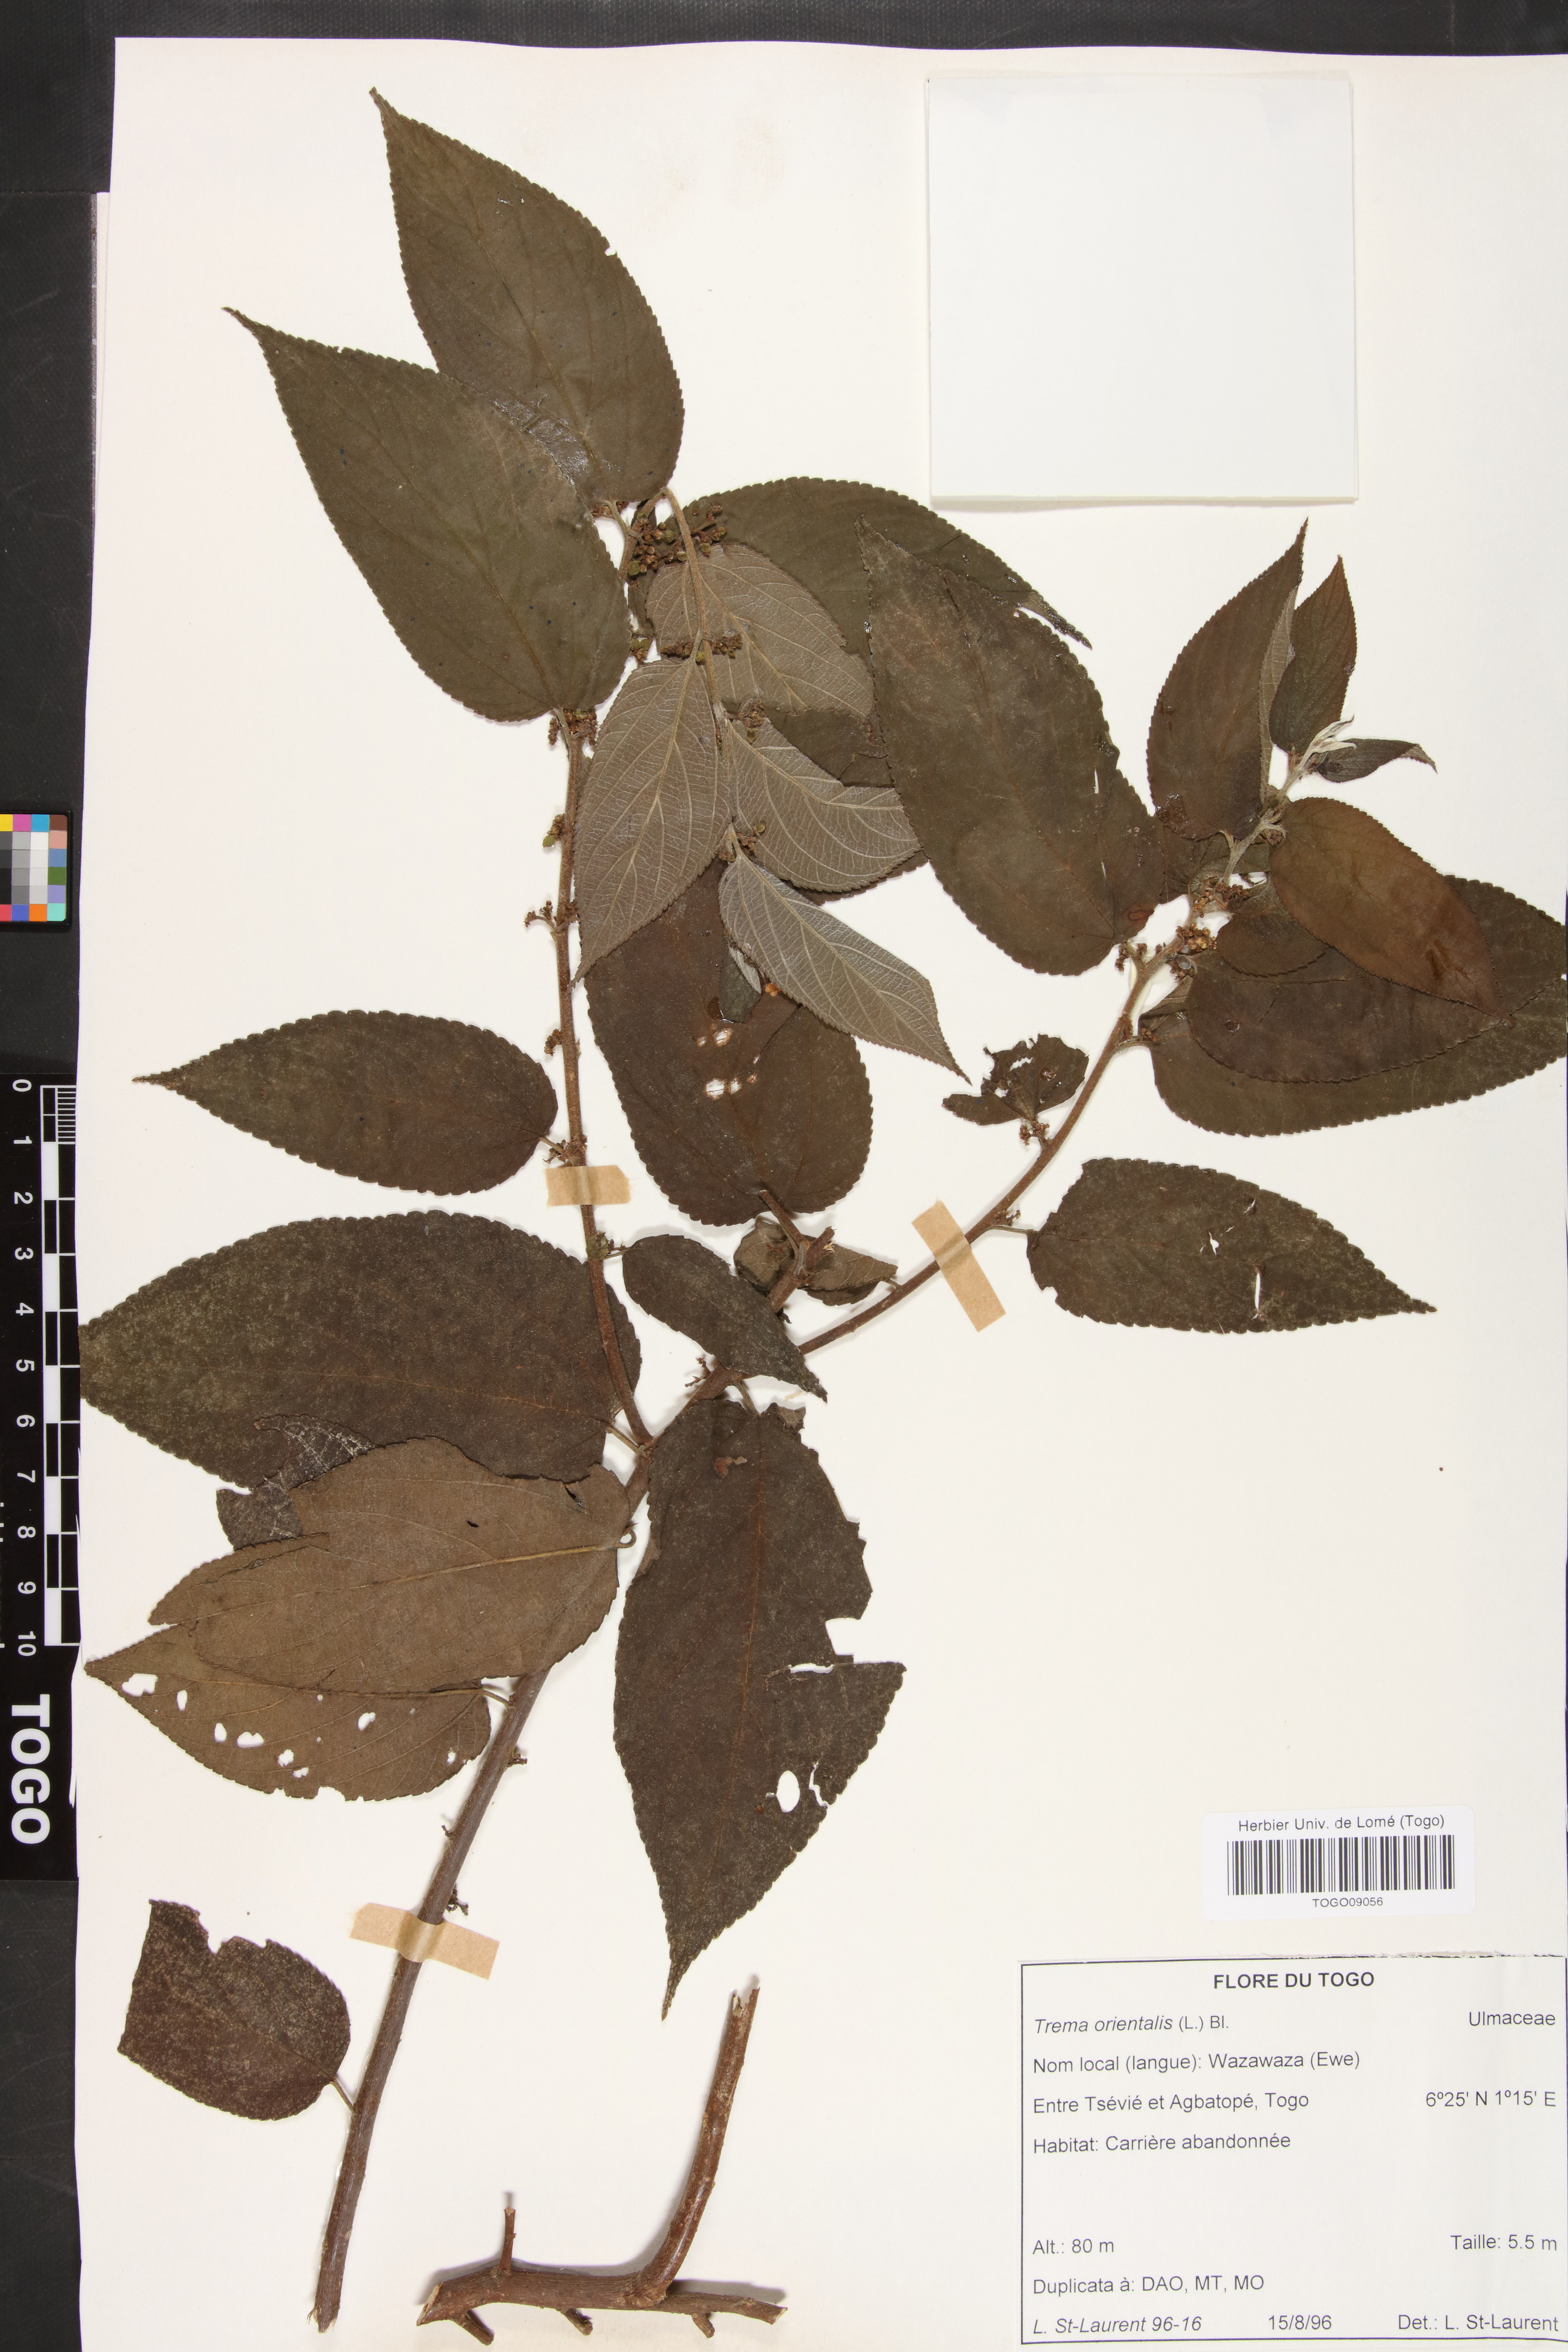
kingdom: Plantae
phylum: Tracheophyta
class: Magnoliopsida
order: Rosales
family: Cannabaceae
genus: Trema
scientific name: Trema orientale
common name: Indian charcoal tree
